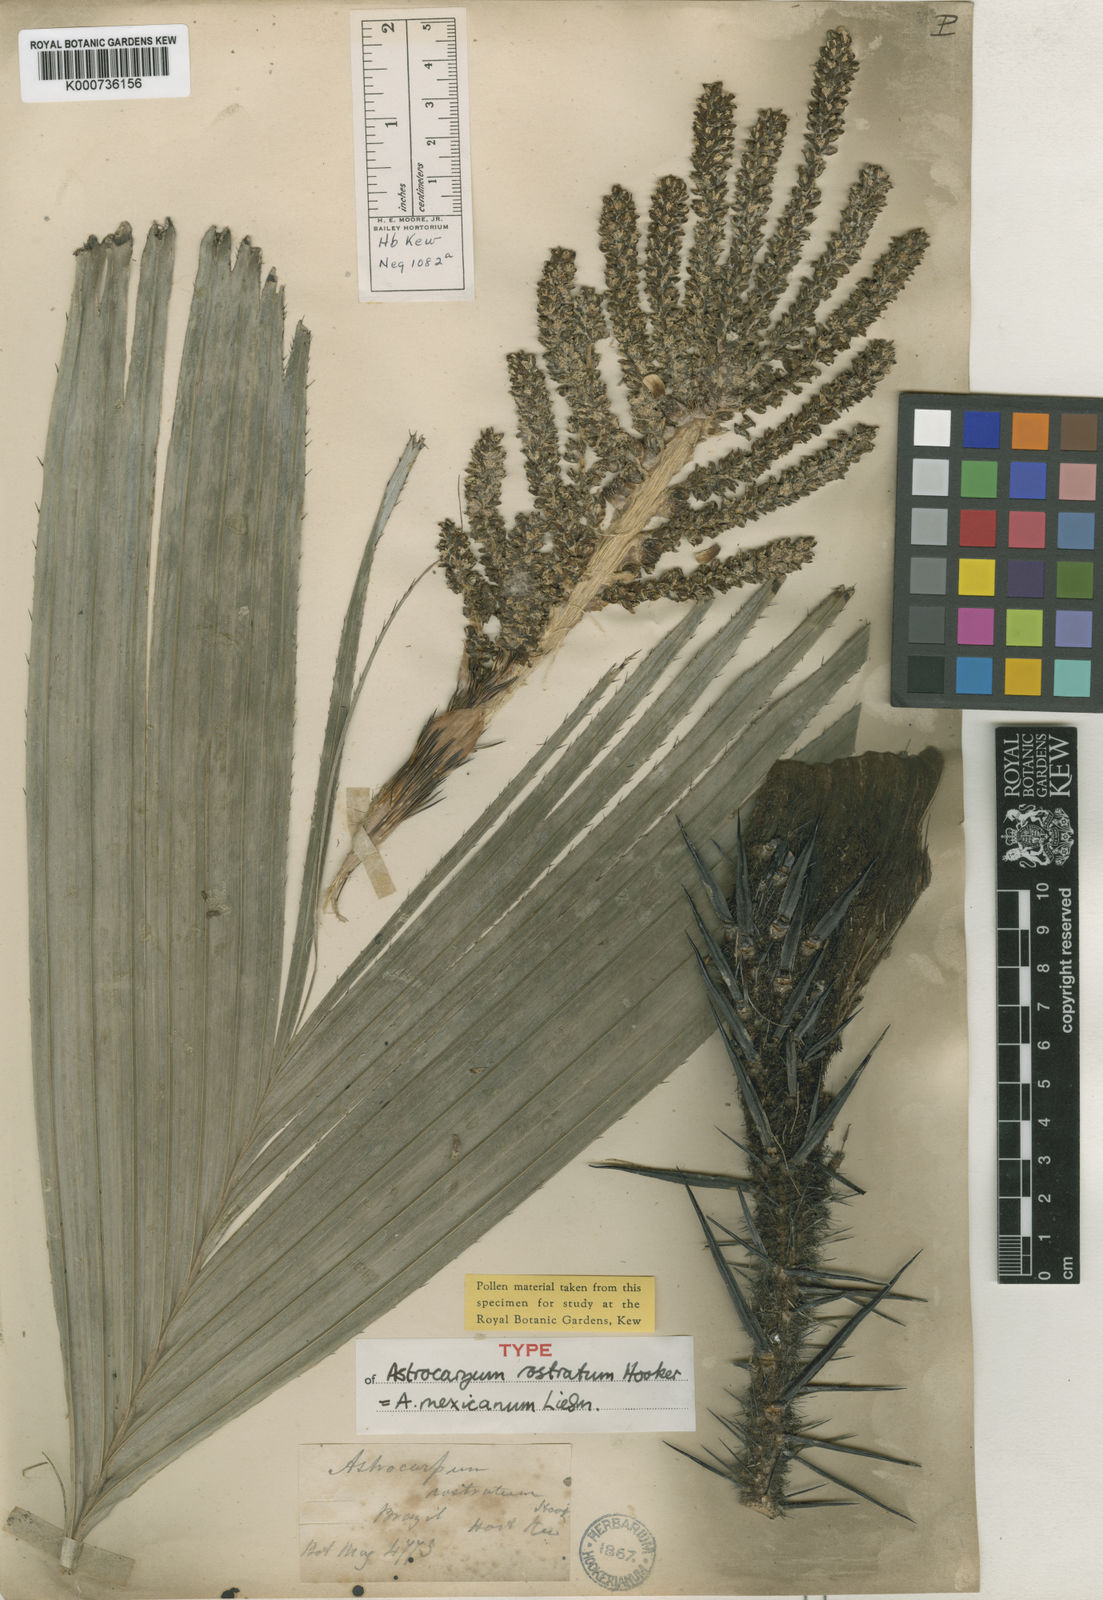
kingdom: Plantae
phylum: Tracheophyta
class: Liliopsida
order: Arecales
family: Arecaceae
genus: Astrocaryum
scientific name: Astrocaryum
